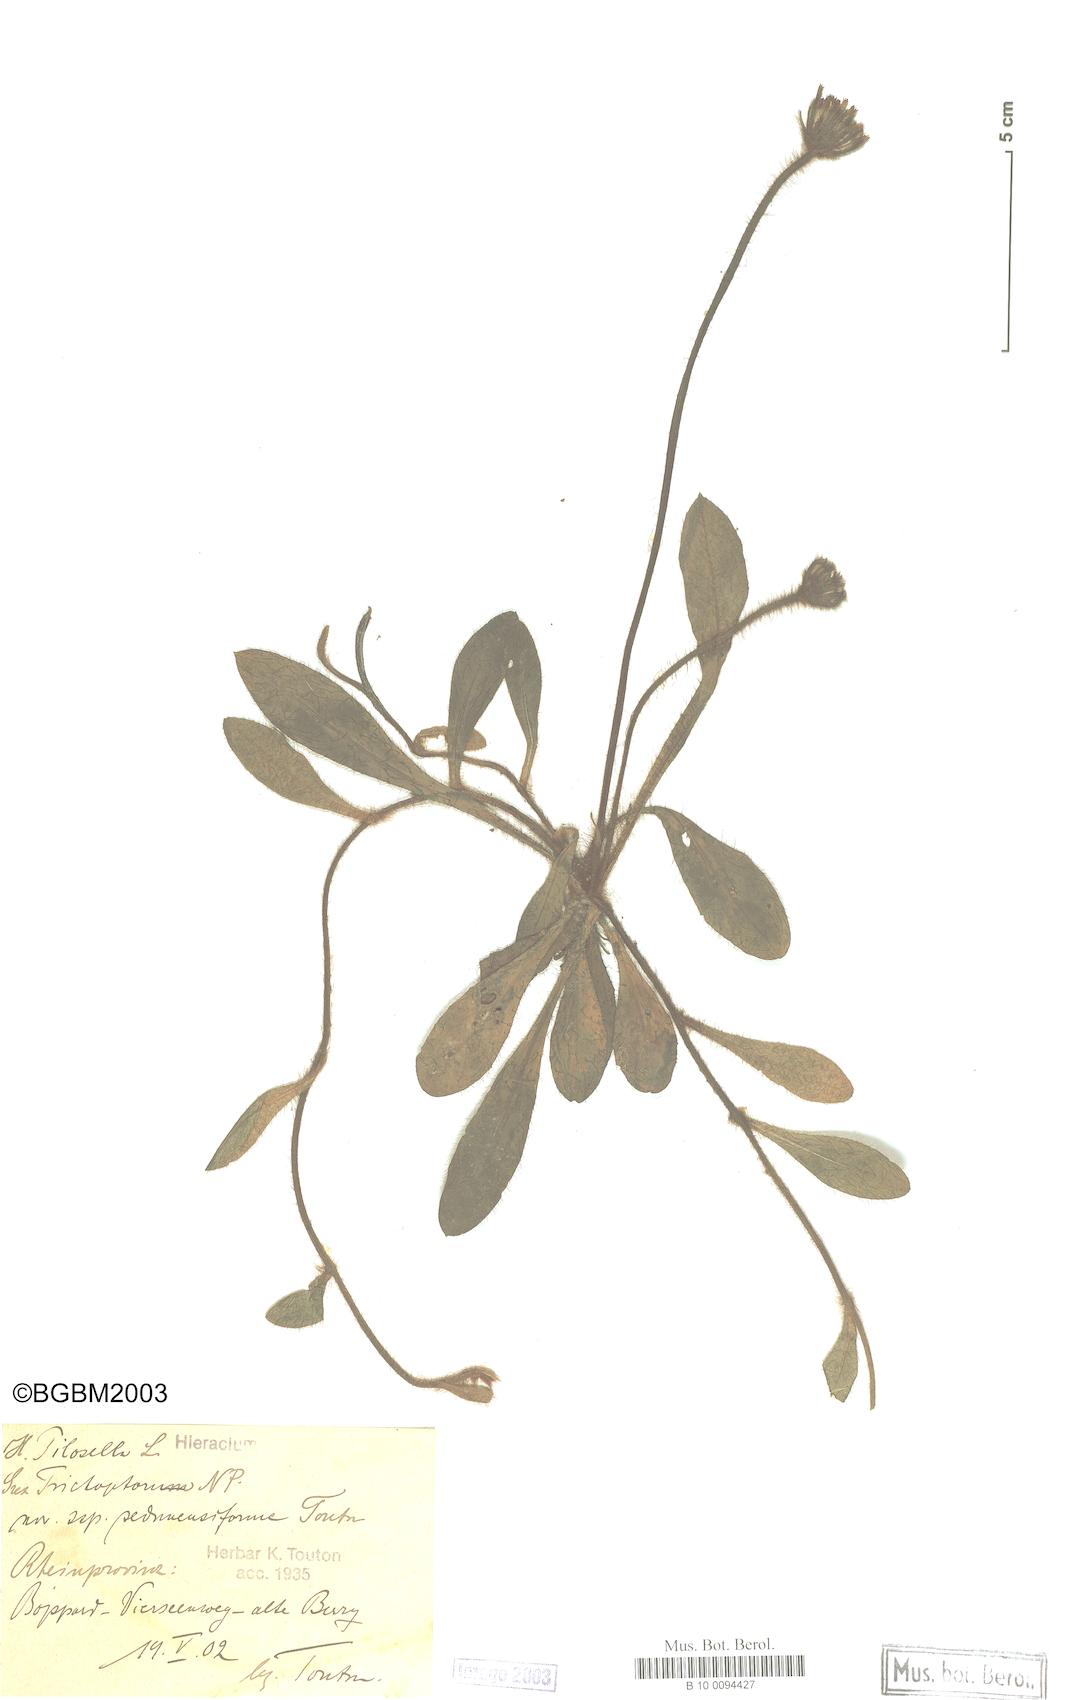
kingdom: Plantae
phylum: Tracheophyta
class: Magnoliopsida
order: Asterales
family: Asteraceae
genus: Pilosella
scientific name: Pilosella officinarum
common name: Mouse-ear hawkweed
